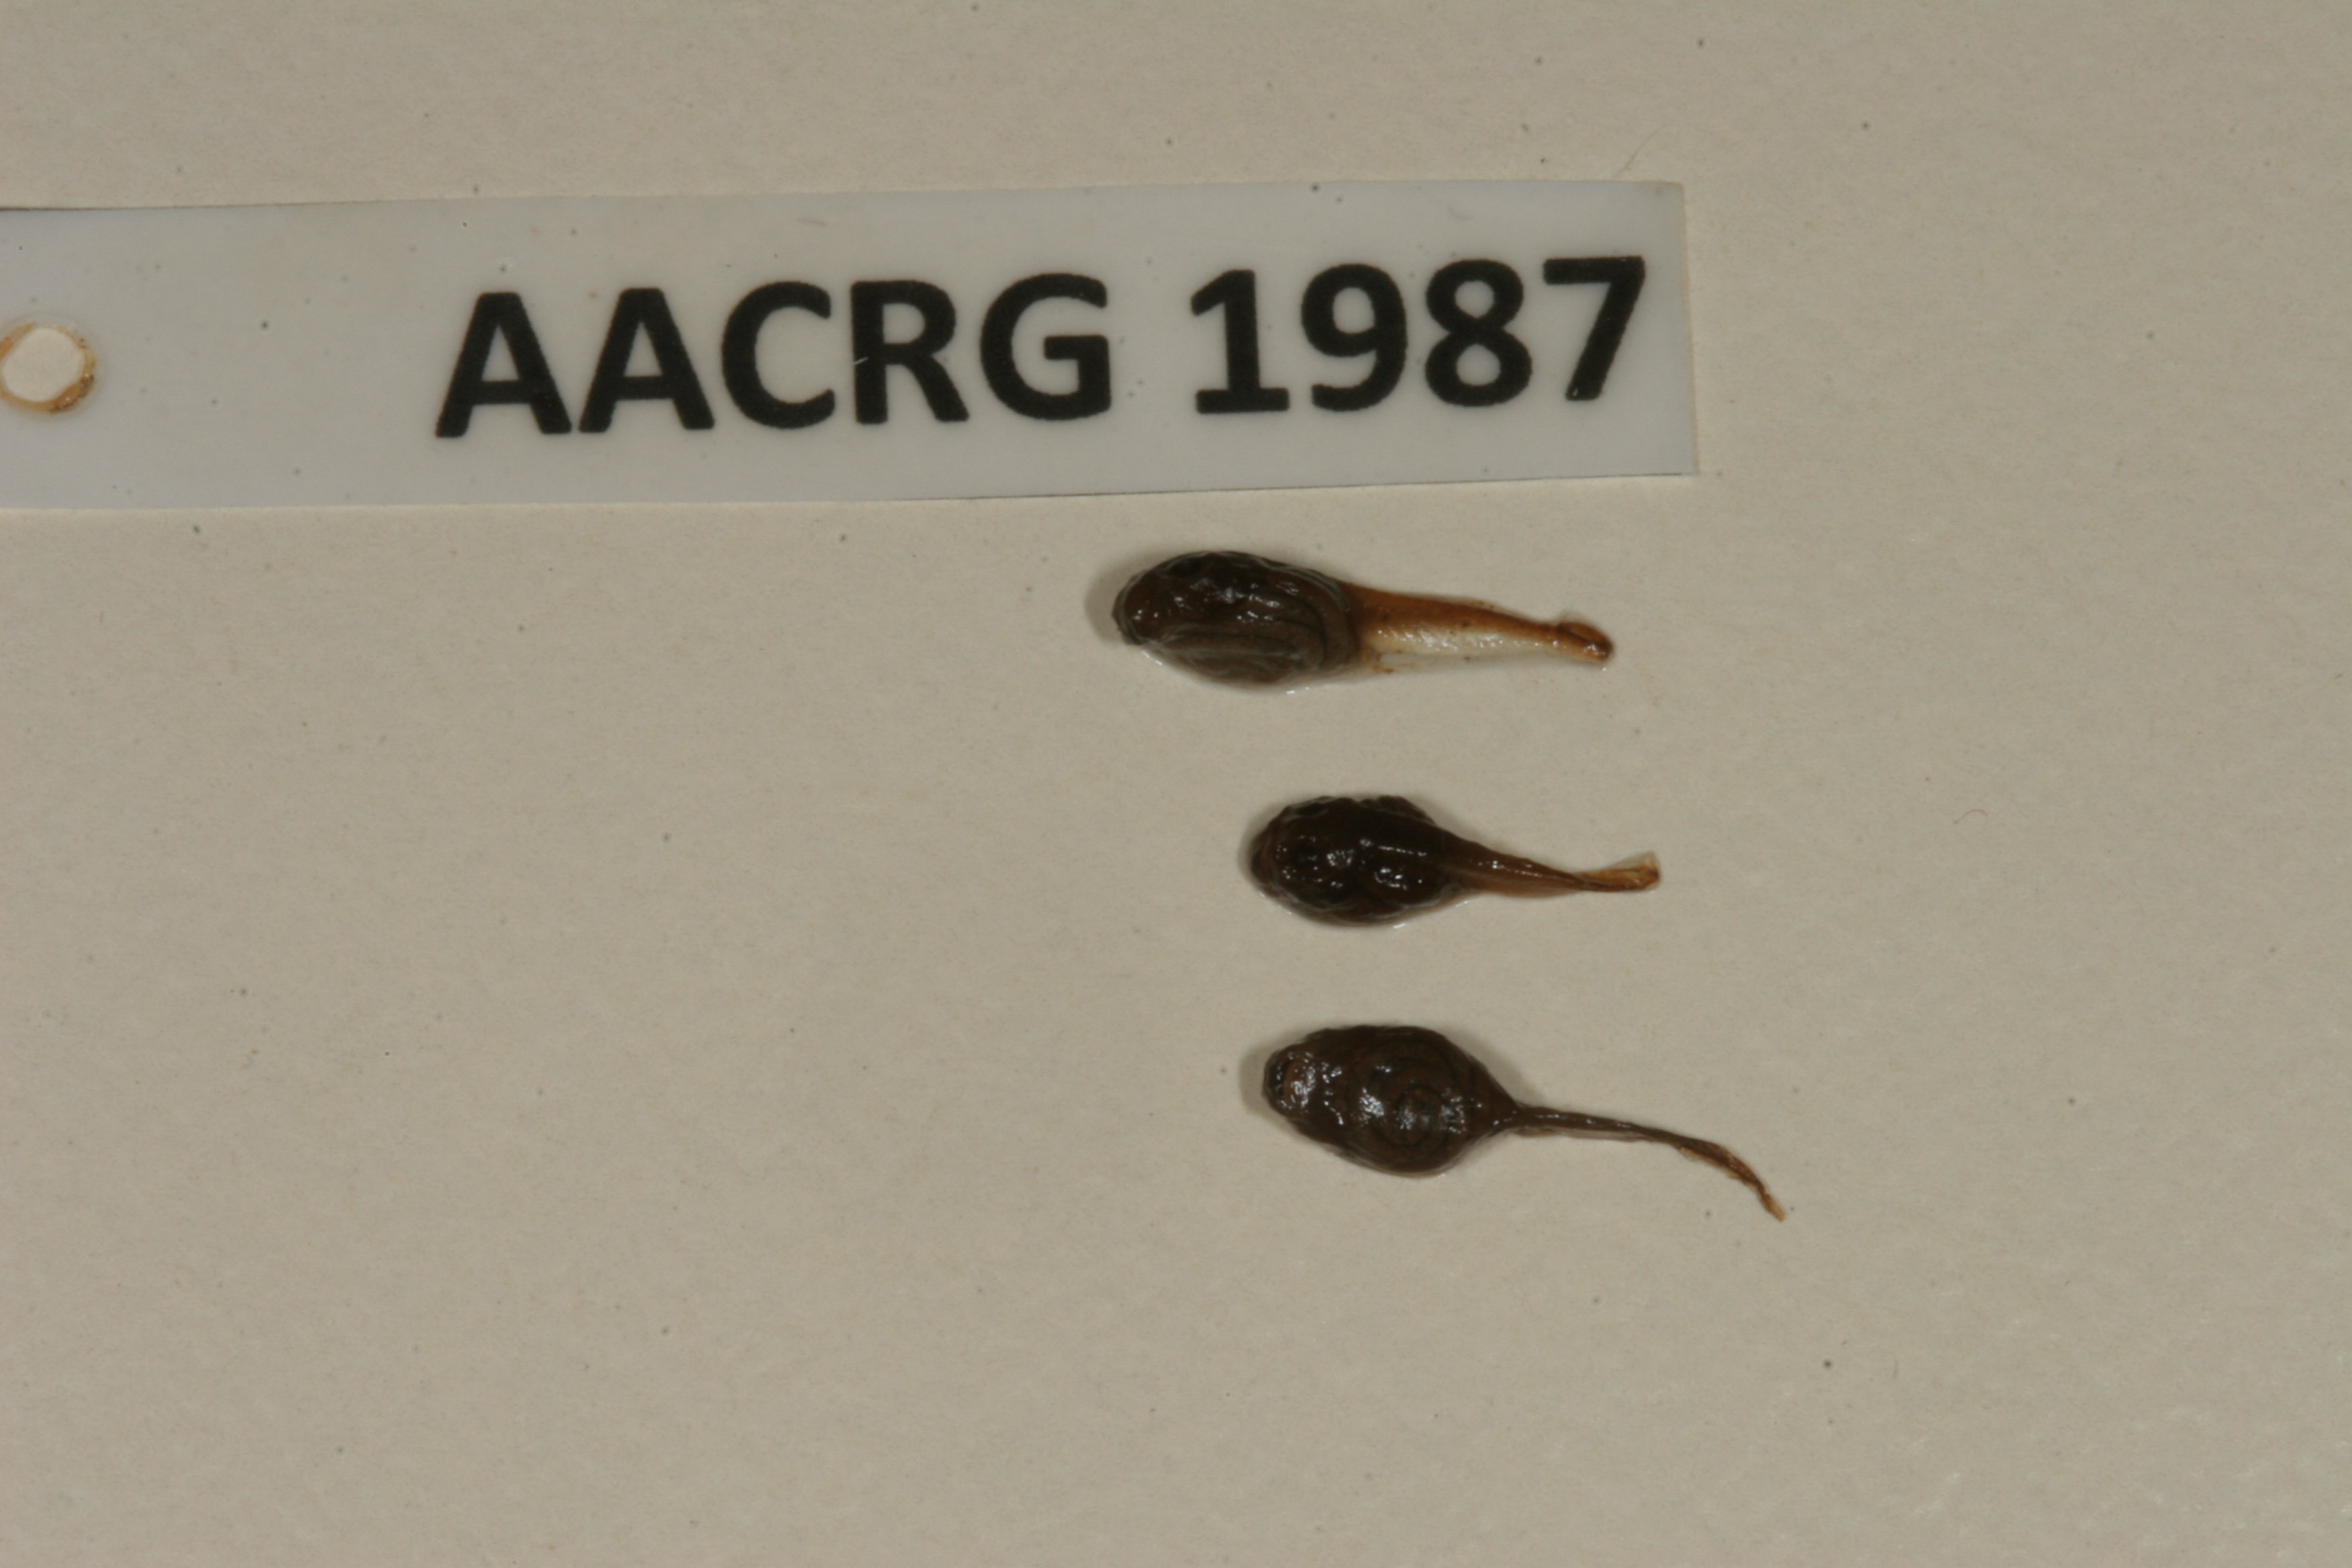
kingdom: Animalia
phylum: Chordata
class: Amphibia
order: Anura
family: Bufonidae
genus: Sclerophrys
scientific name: Sclerophrys gutturalis
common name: African common toad
